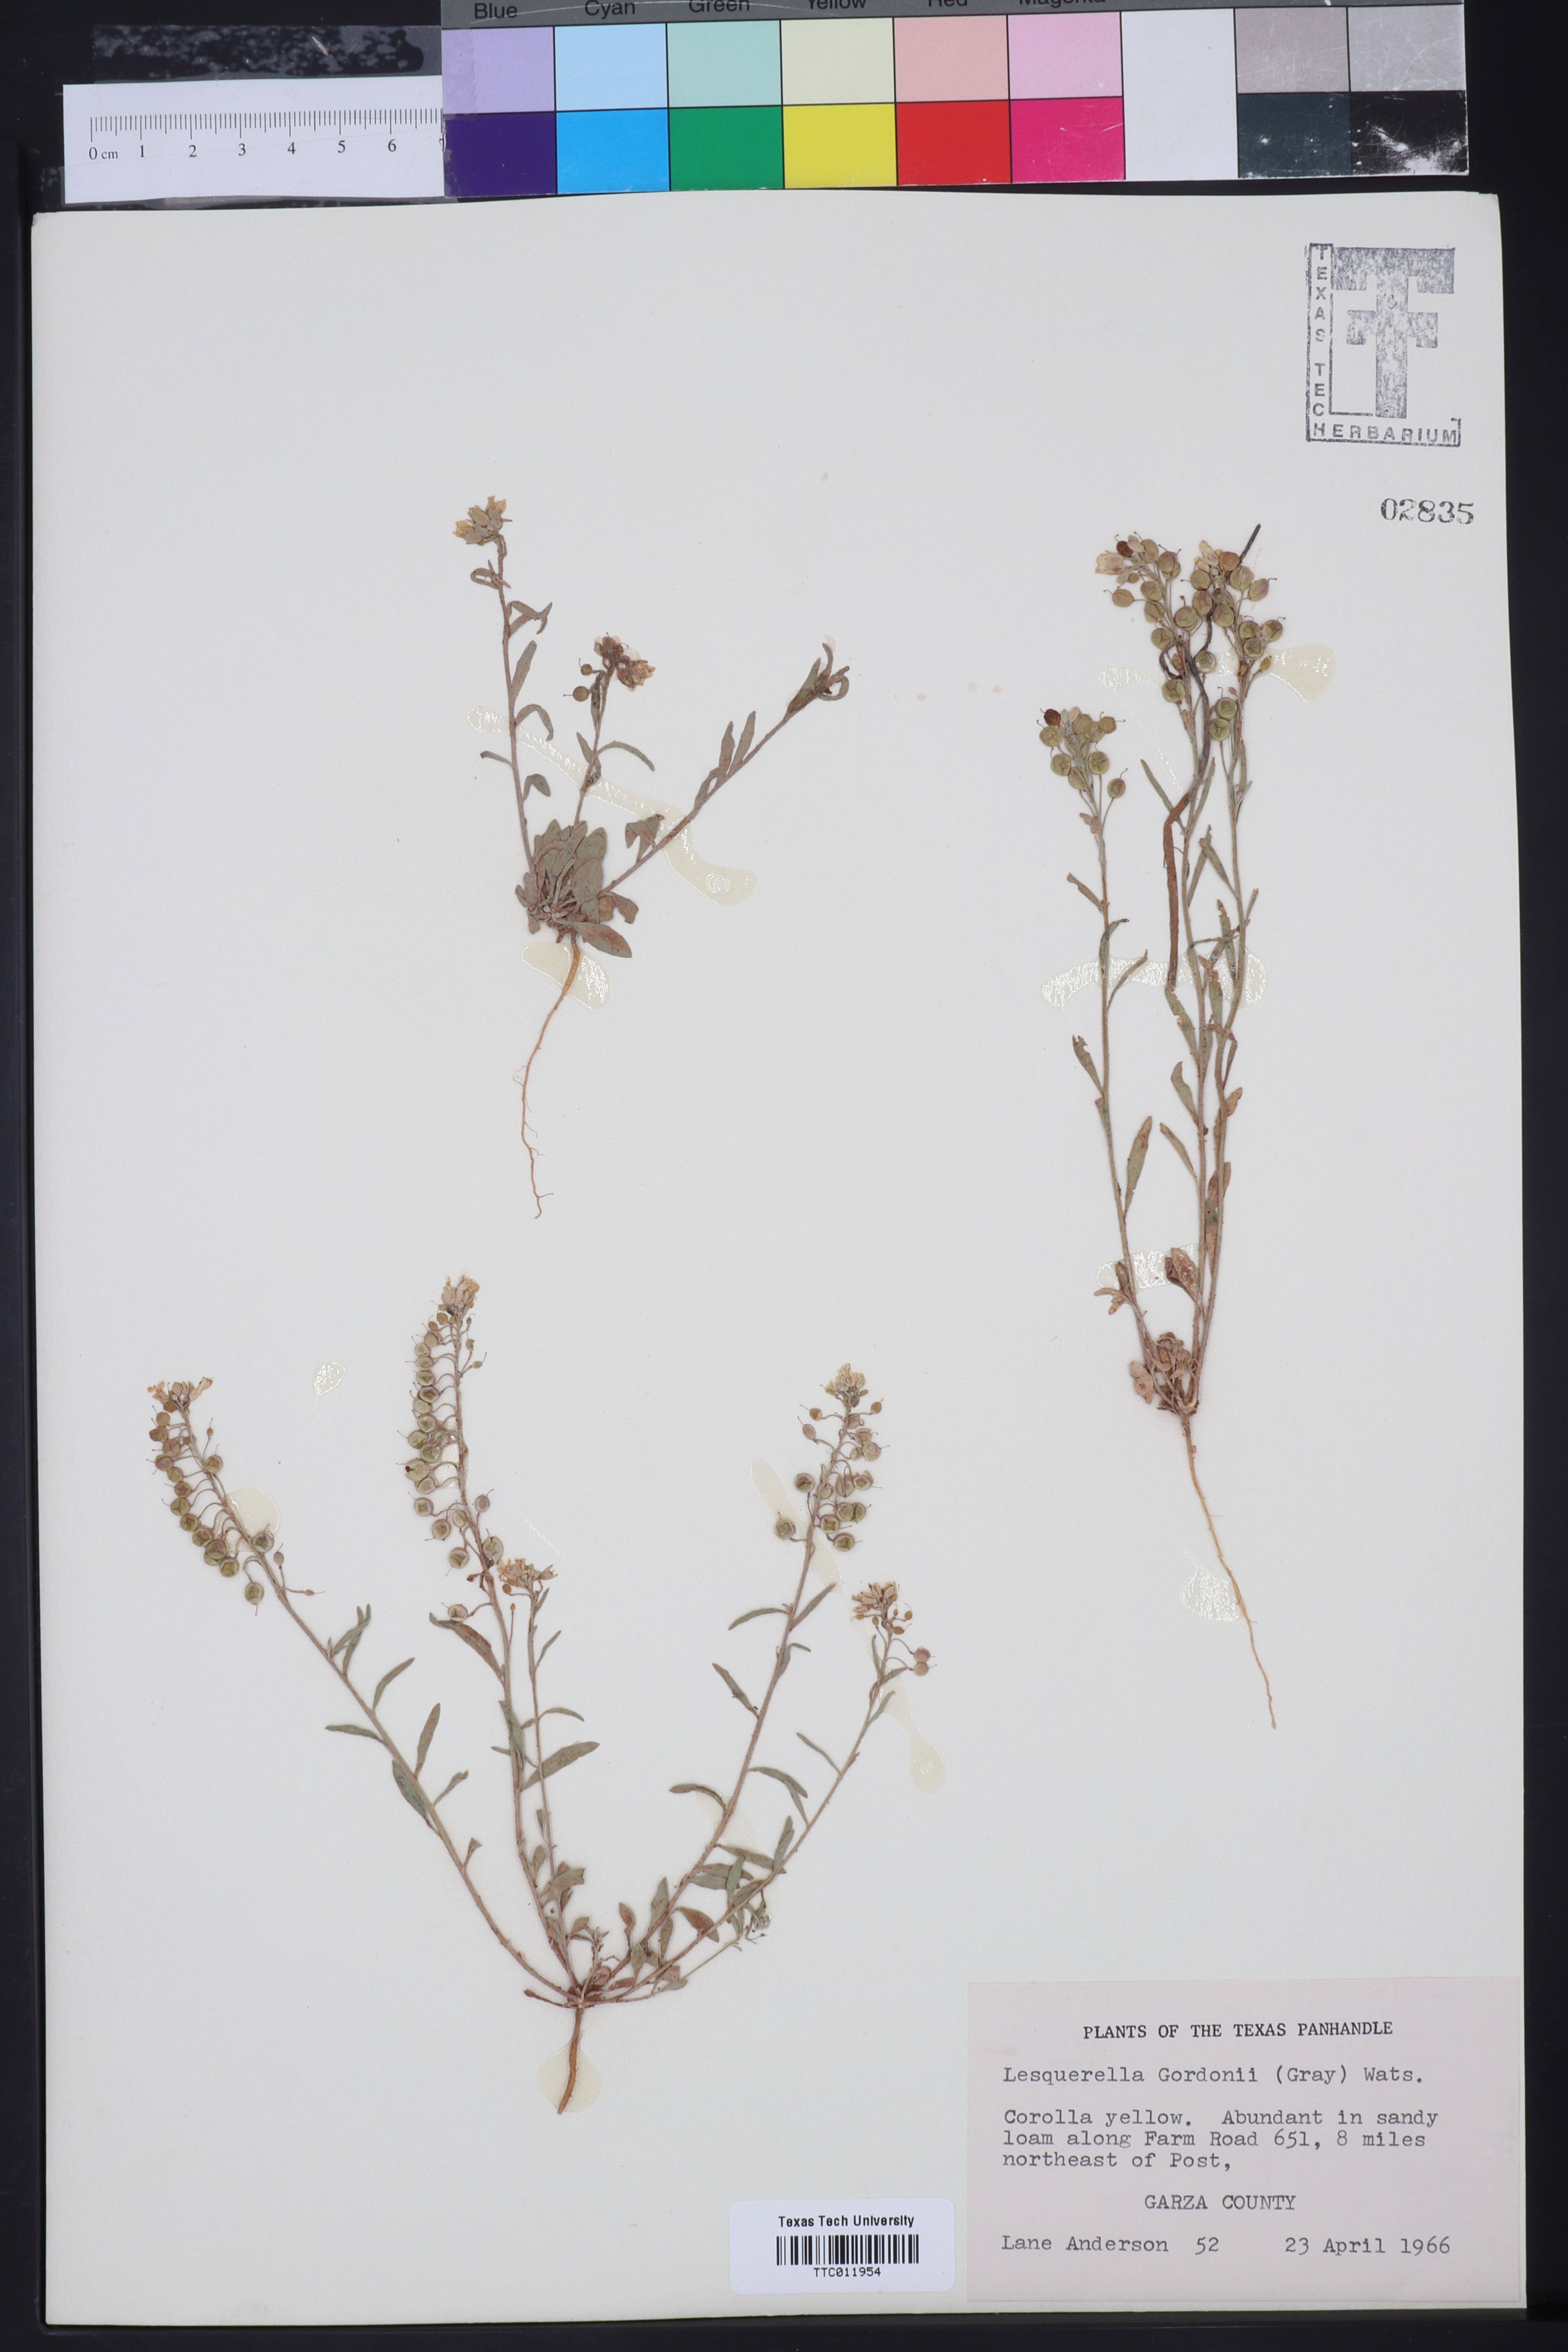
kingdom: Plantae
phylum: Tracheophyta
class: Magnoliopsida
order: Brassicales
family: Brassicaceae
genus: Physaria
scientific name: Physaria gordonii
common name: Gordon's bladderpod
